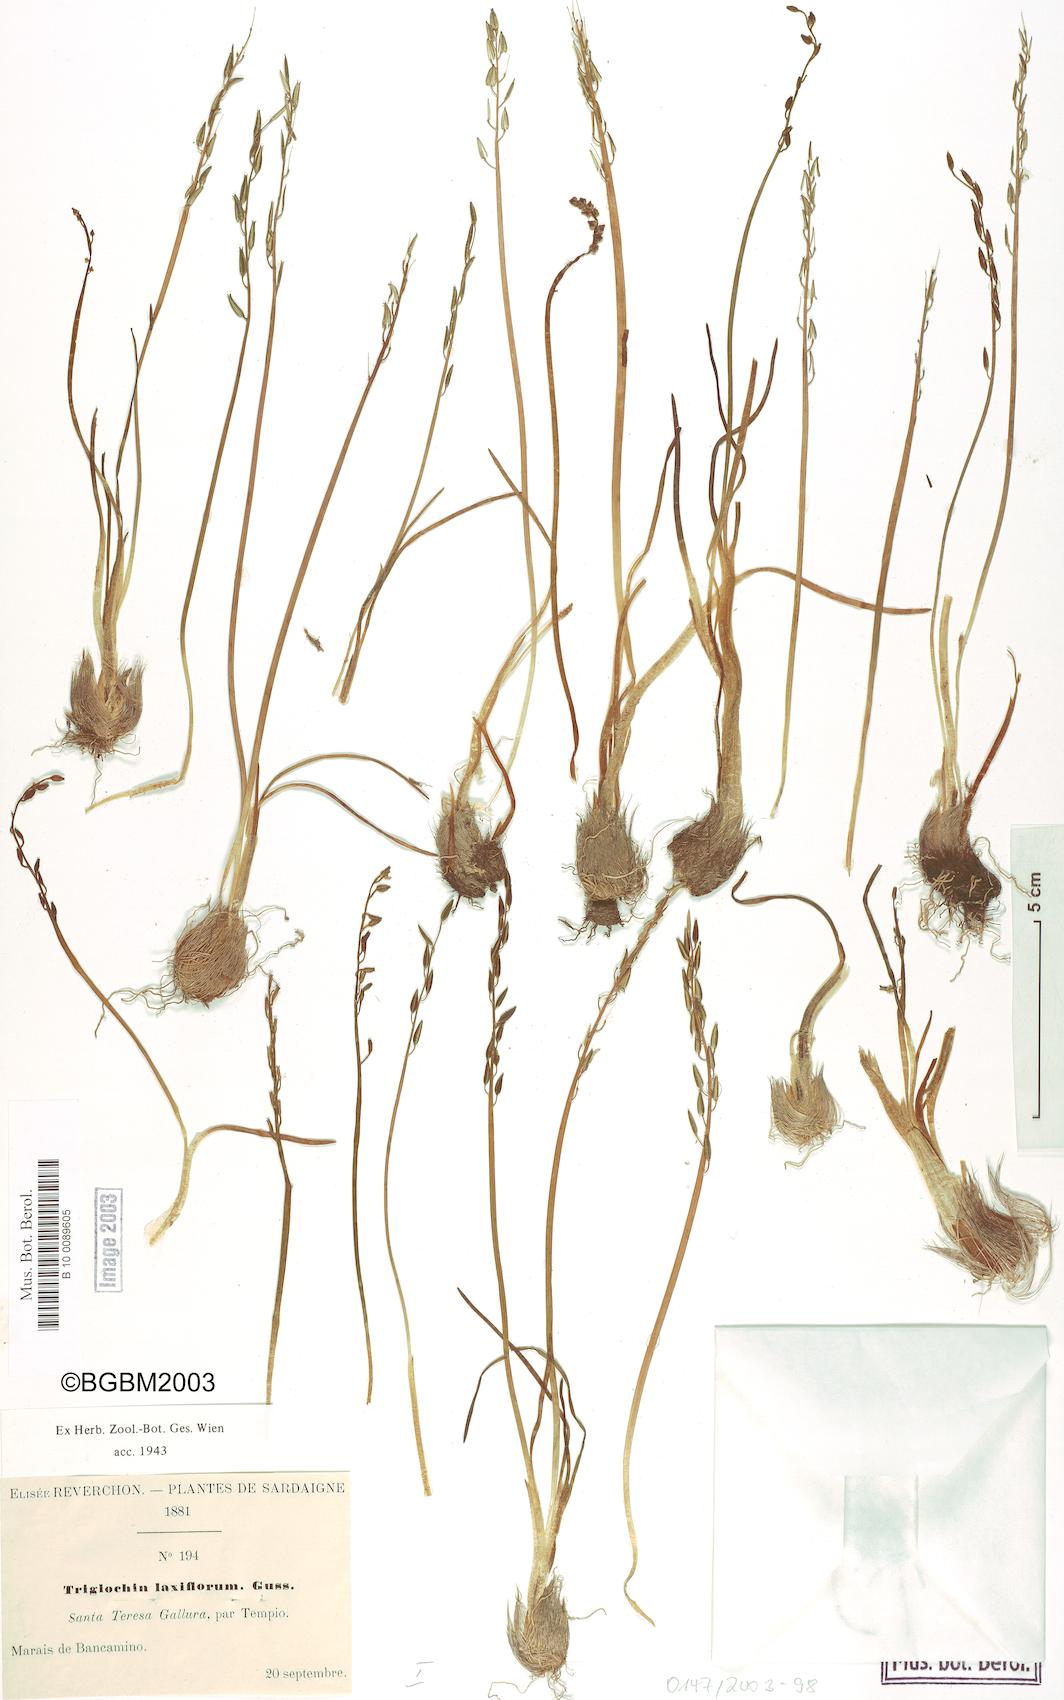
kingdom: Plantae
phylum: Tracheophyta
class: Liliopsida
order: Alismatales
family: Juncaginaceae
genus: Triglochin
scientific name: Triglochin laxiflora
